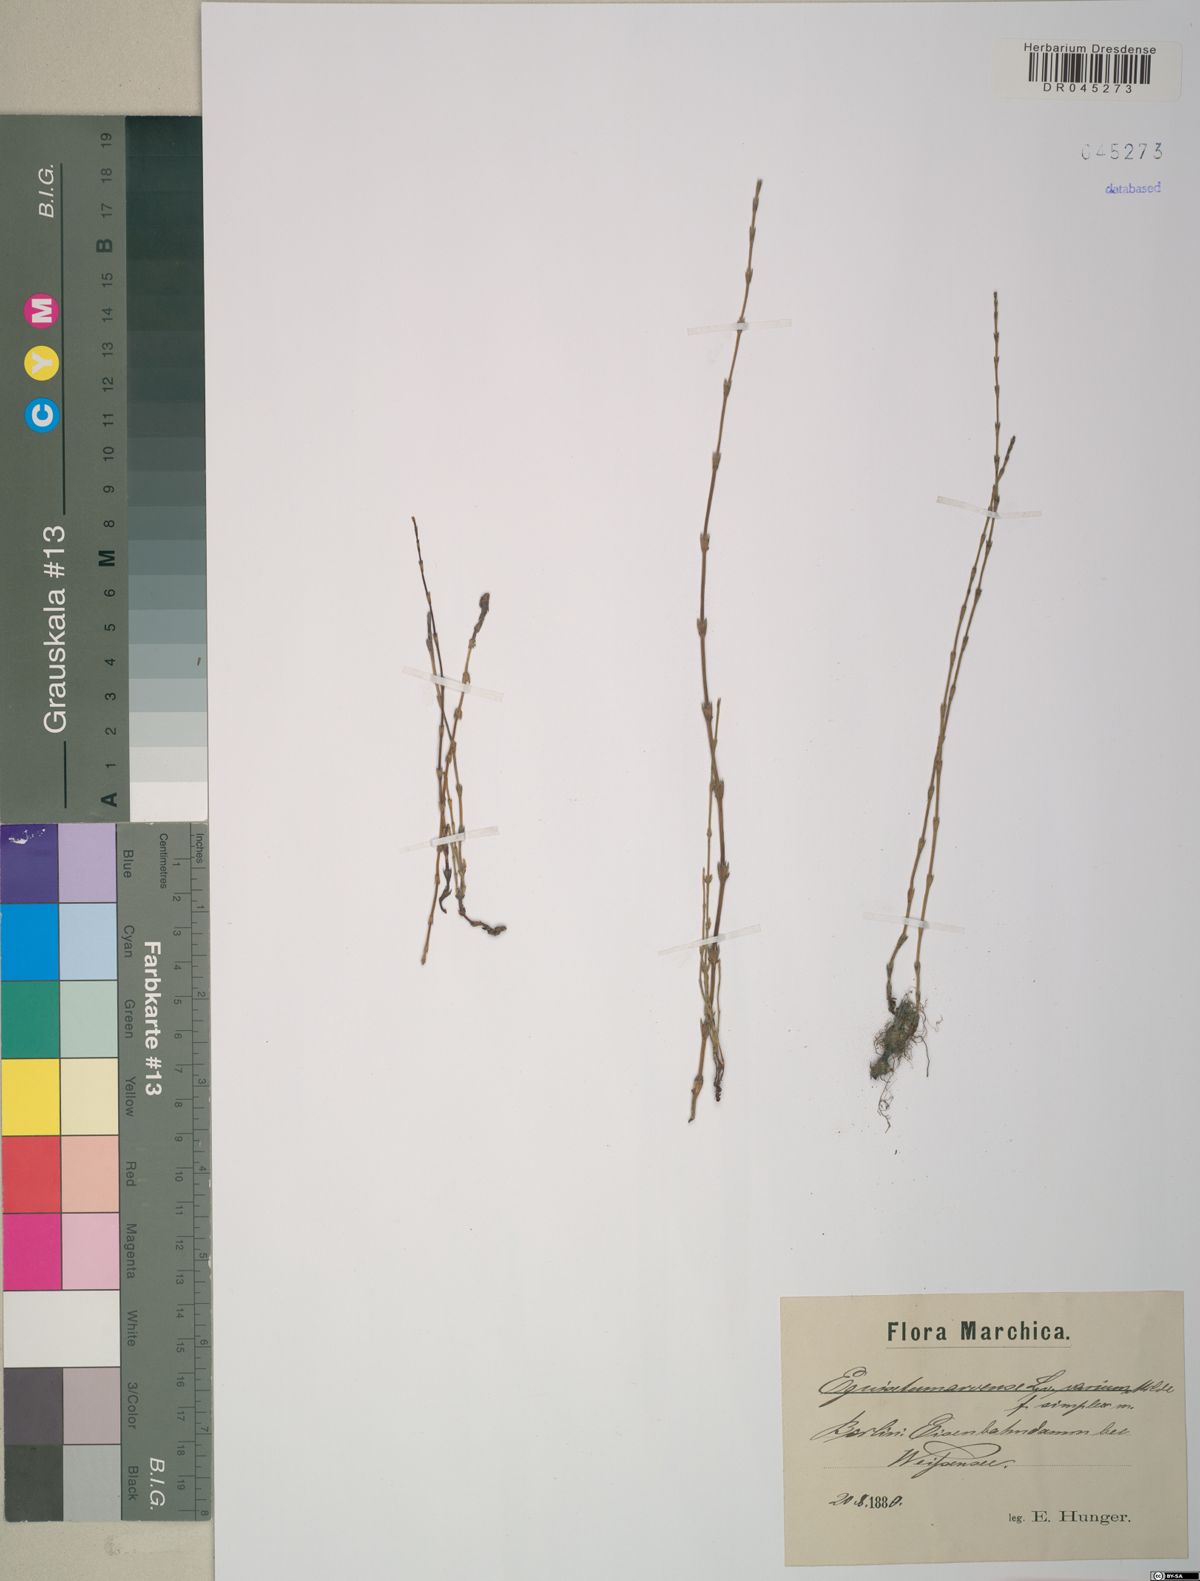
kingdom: Plantae
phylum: Tracheophyta
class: Polypodiopsida
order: Equisetales
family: Equisetaceae
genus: Equisetum
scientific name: Equisetum arvense
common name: Field horsetail
